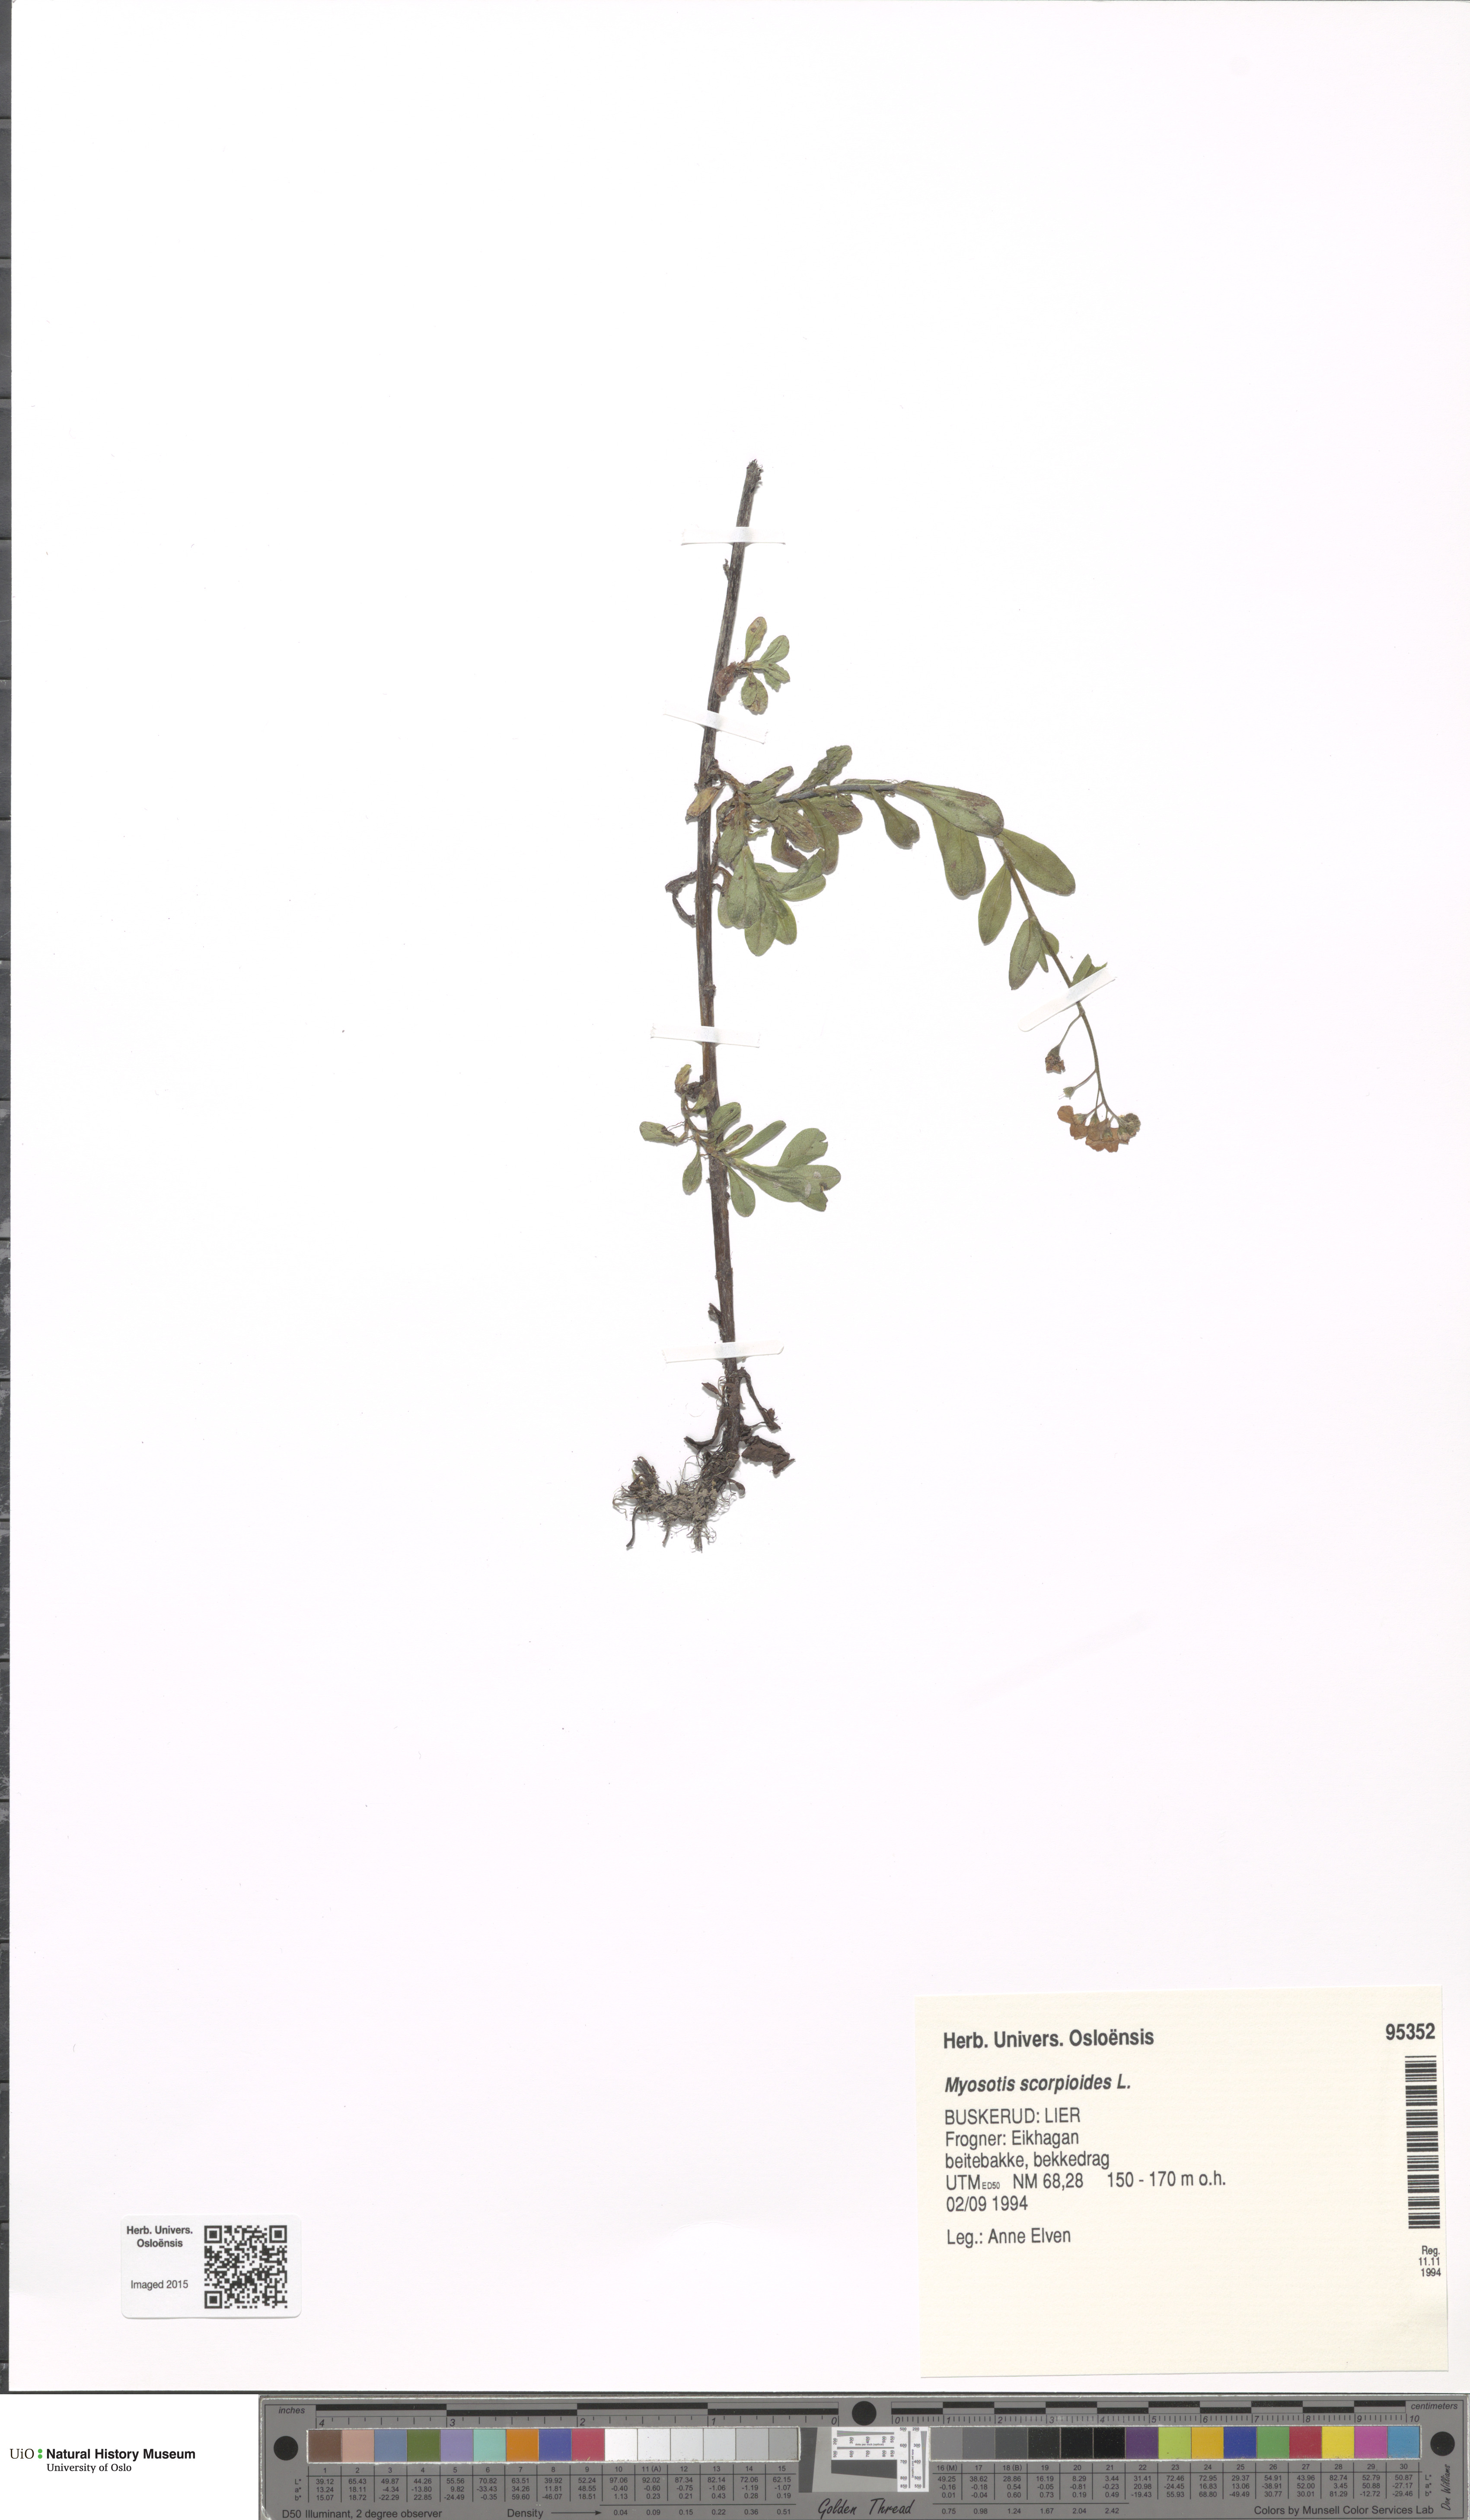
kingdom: Plantae
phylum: Tracheophyta
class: Magnoliopsida
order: Boraginales
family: Boraginaceae
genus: Myosotis
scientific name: Myosotis scorpioides
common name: Water forget-me-not
